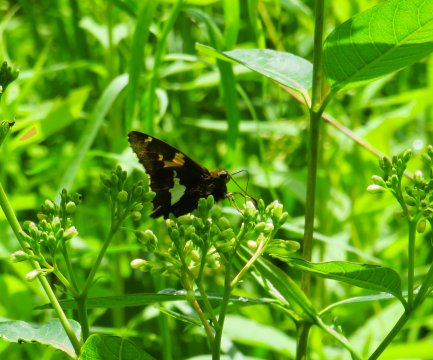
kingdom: Animalia
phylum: Arthropoda
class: Insecta
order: Lepidoptera
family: Hesperiidae
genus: Epargyreus
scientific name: Epargyreus clarus
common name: Silver-spotted Skipper
